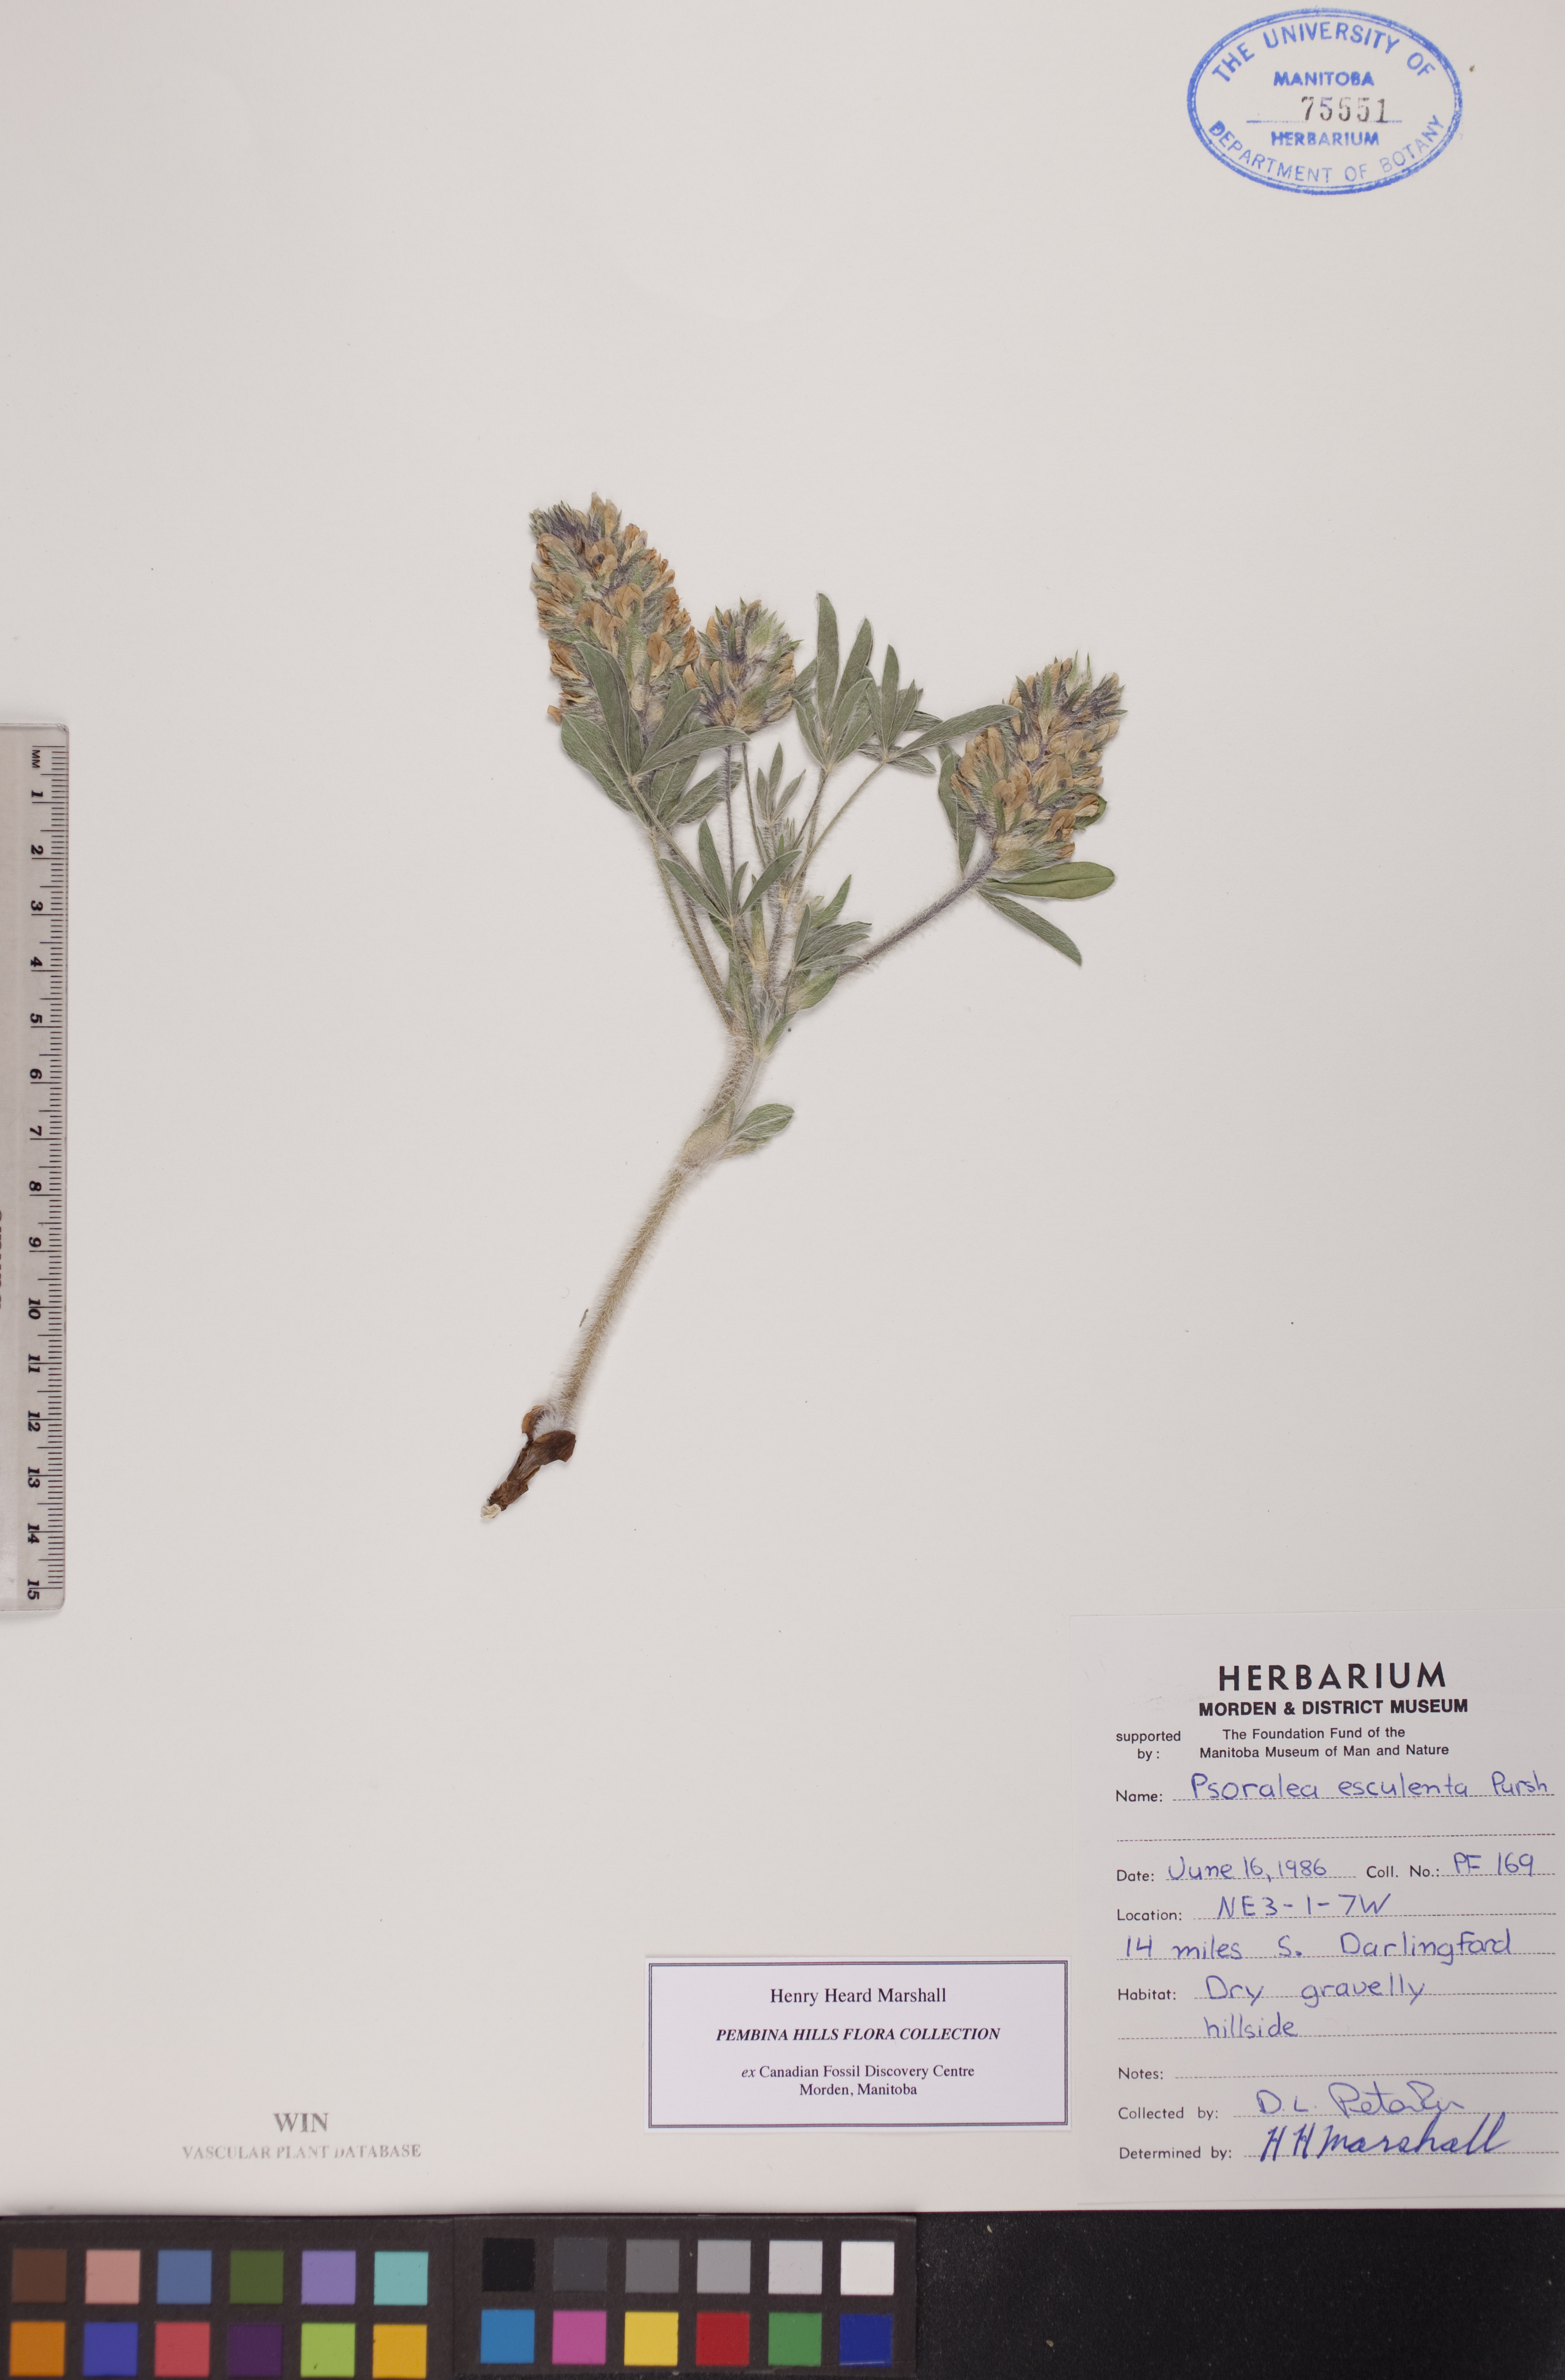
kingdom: Plantae
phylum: Tracheophyta
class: Magnoliopsida
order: Fabales
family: Fabaceae
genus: Pediomelum
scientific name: Pediomelum humile
